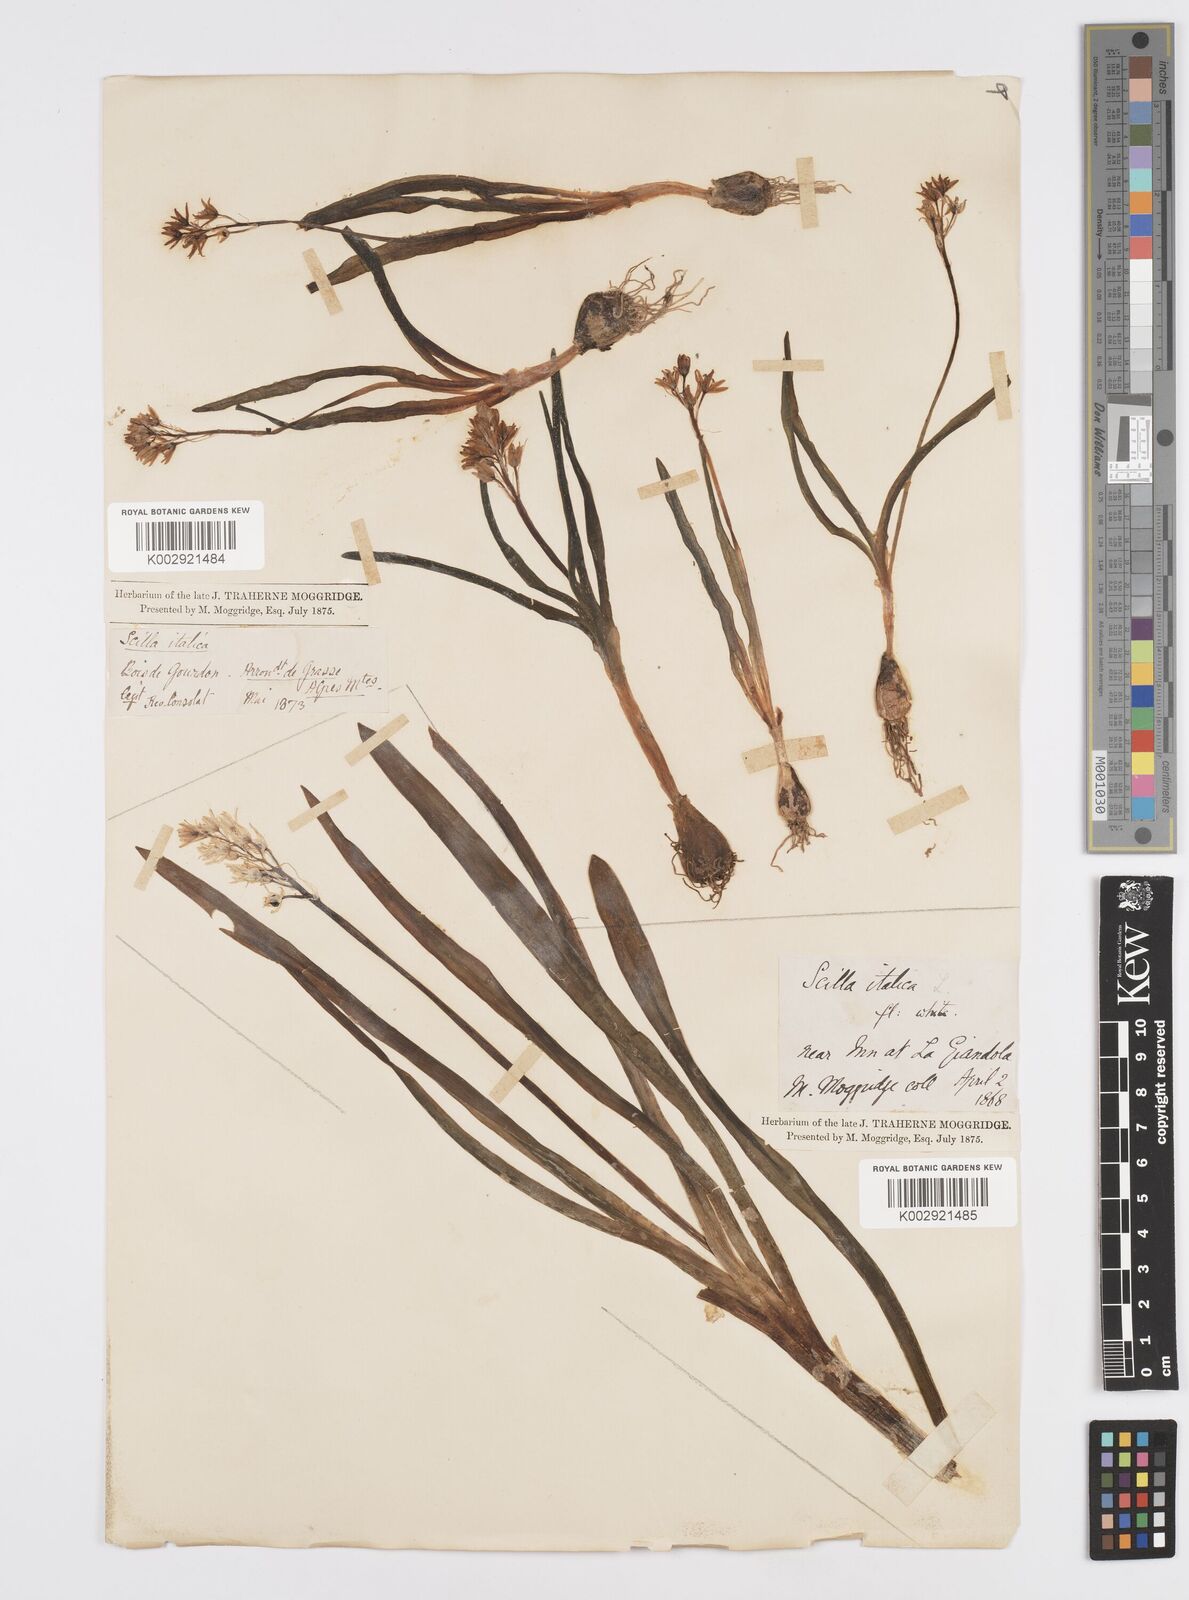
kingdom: Plantae
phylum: Tracheophyta
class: Liliopsida
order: Asparagales
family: Asparagaceae
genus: Hyacinthoides
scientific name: Hyacinthoides italica
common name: Italian bluebell
